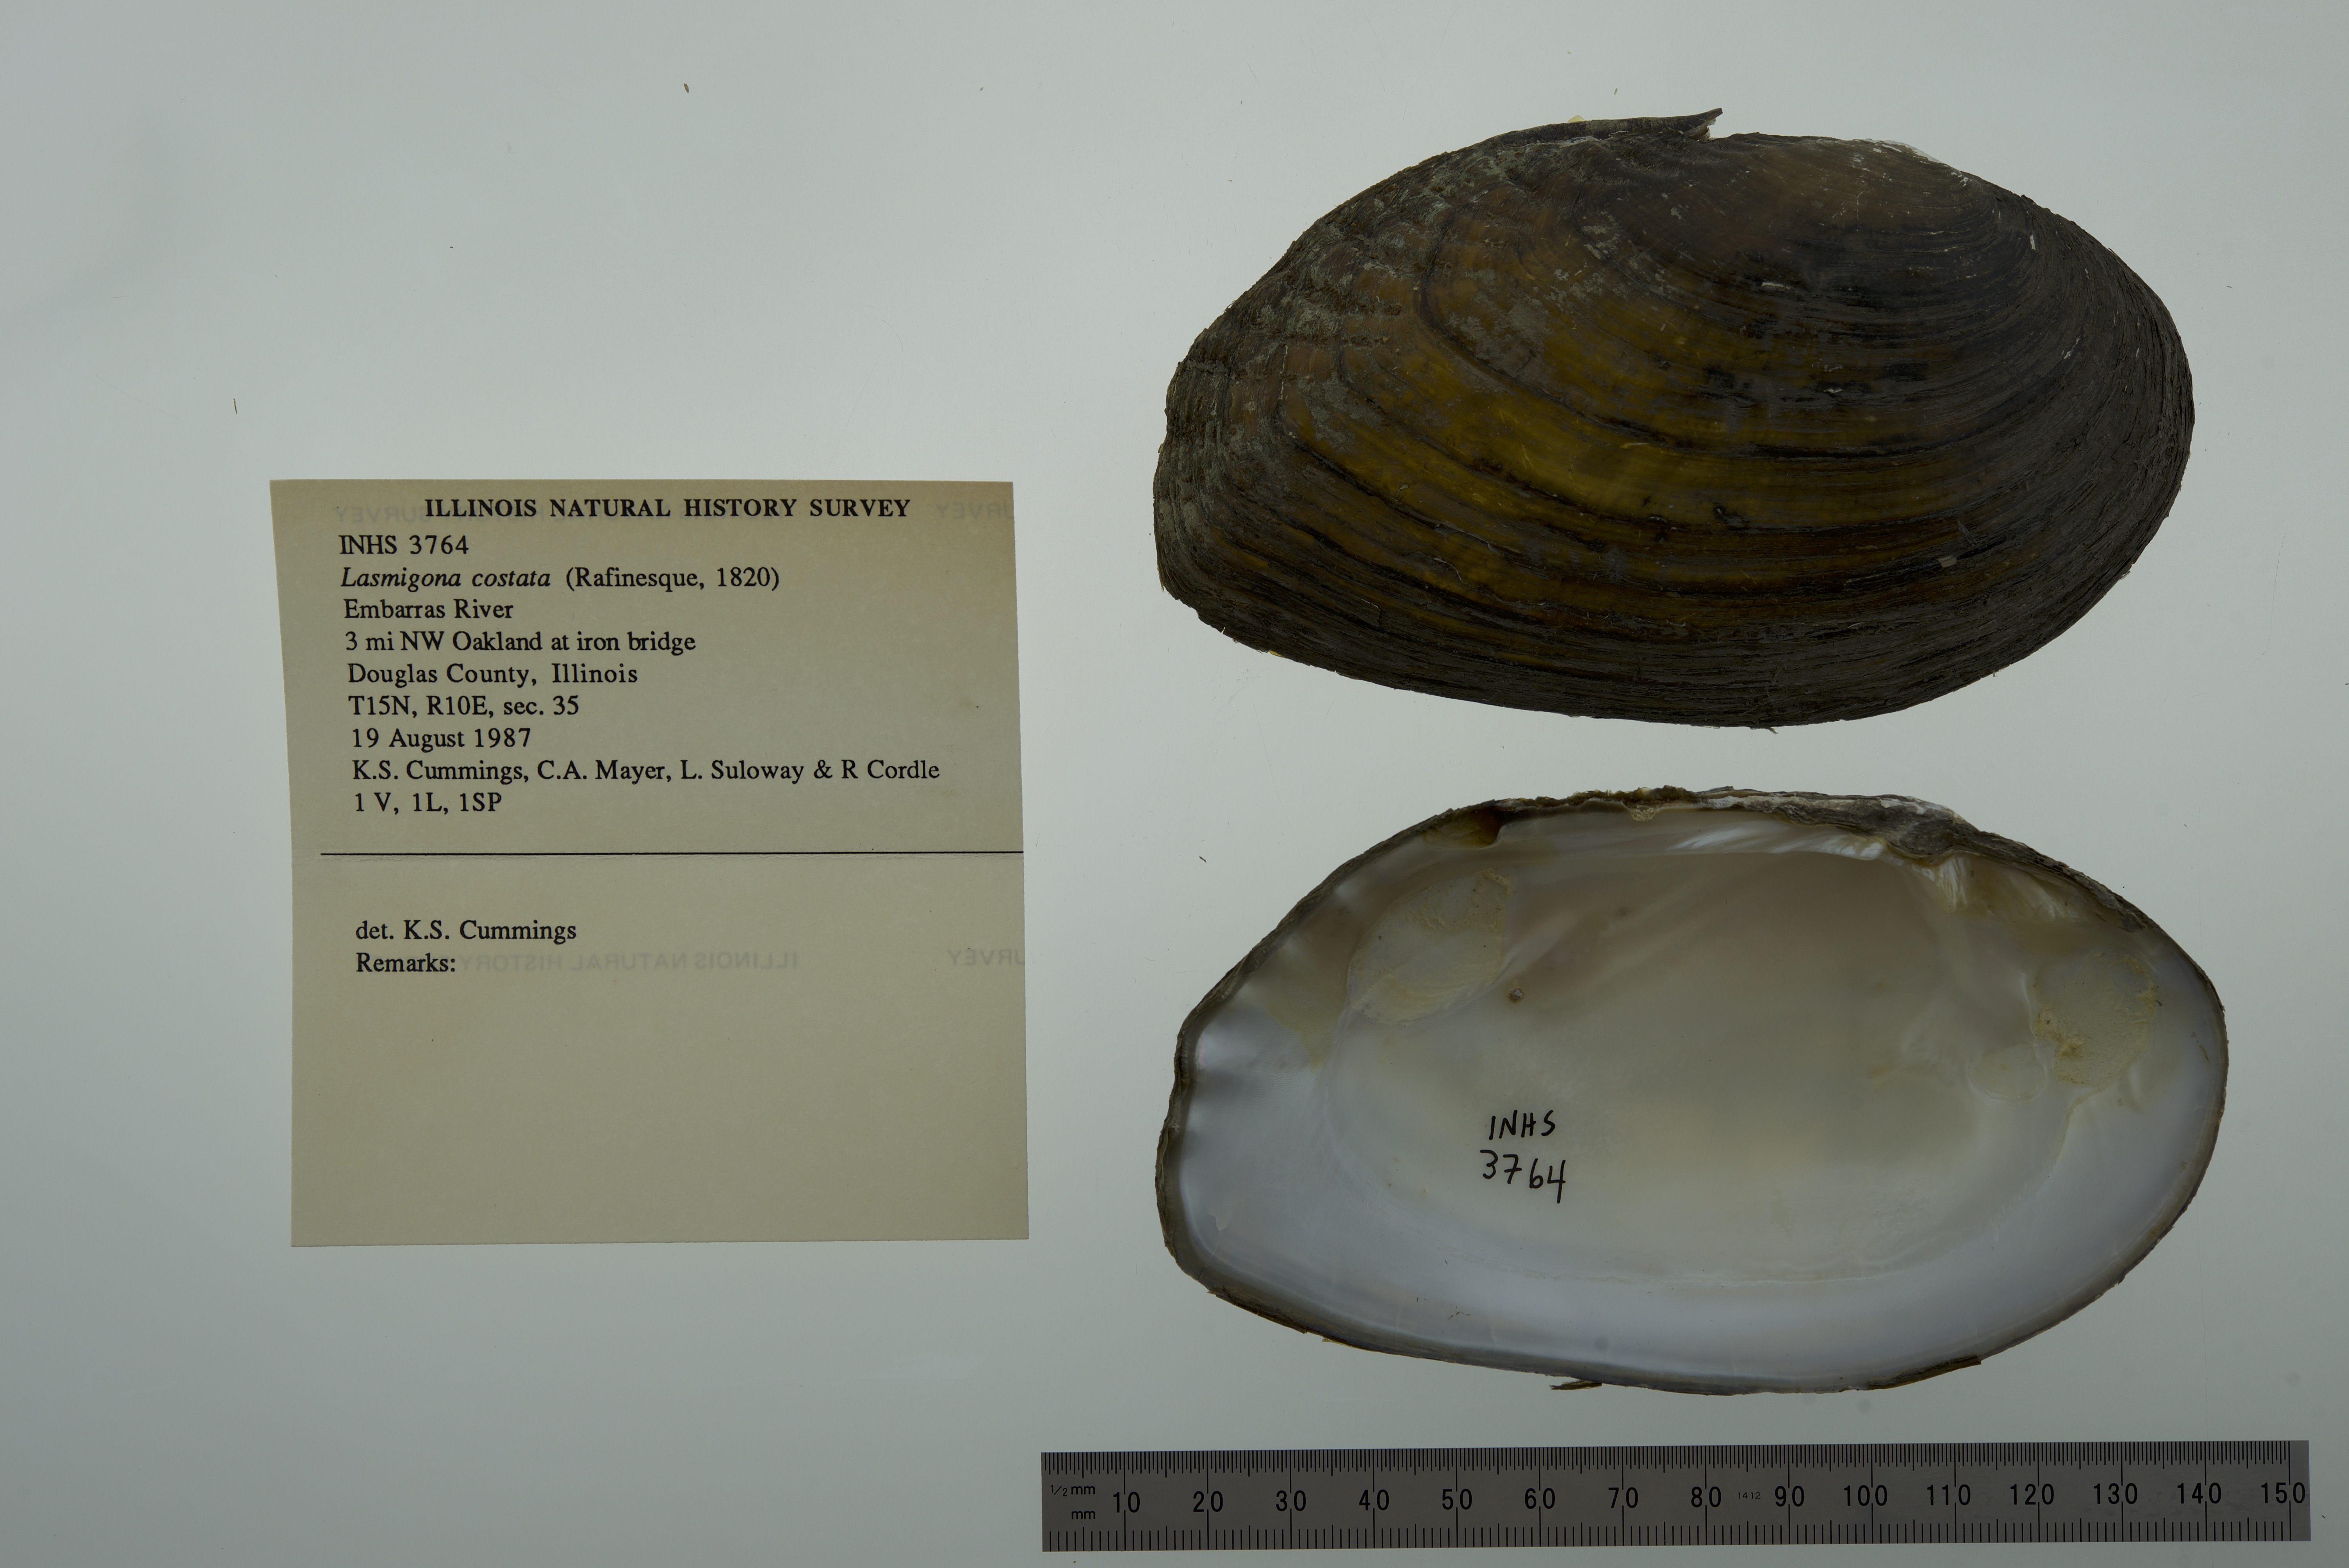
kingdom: Animalia
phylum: Mollusca
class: Bivalvia
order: Unionida
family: Unionidae
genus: Lasmigona
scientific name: Lasmigona costata
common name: Flutedshell
